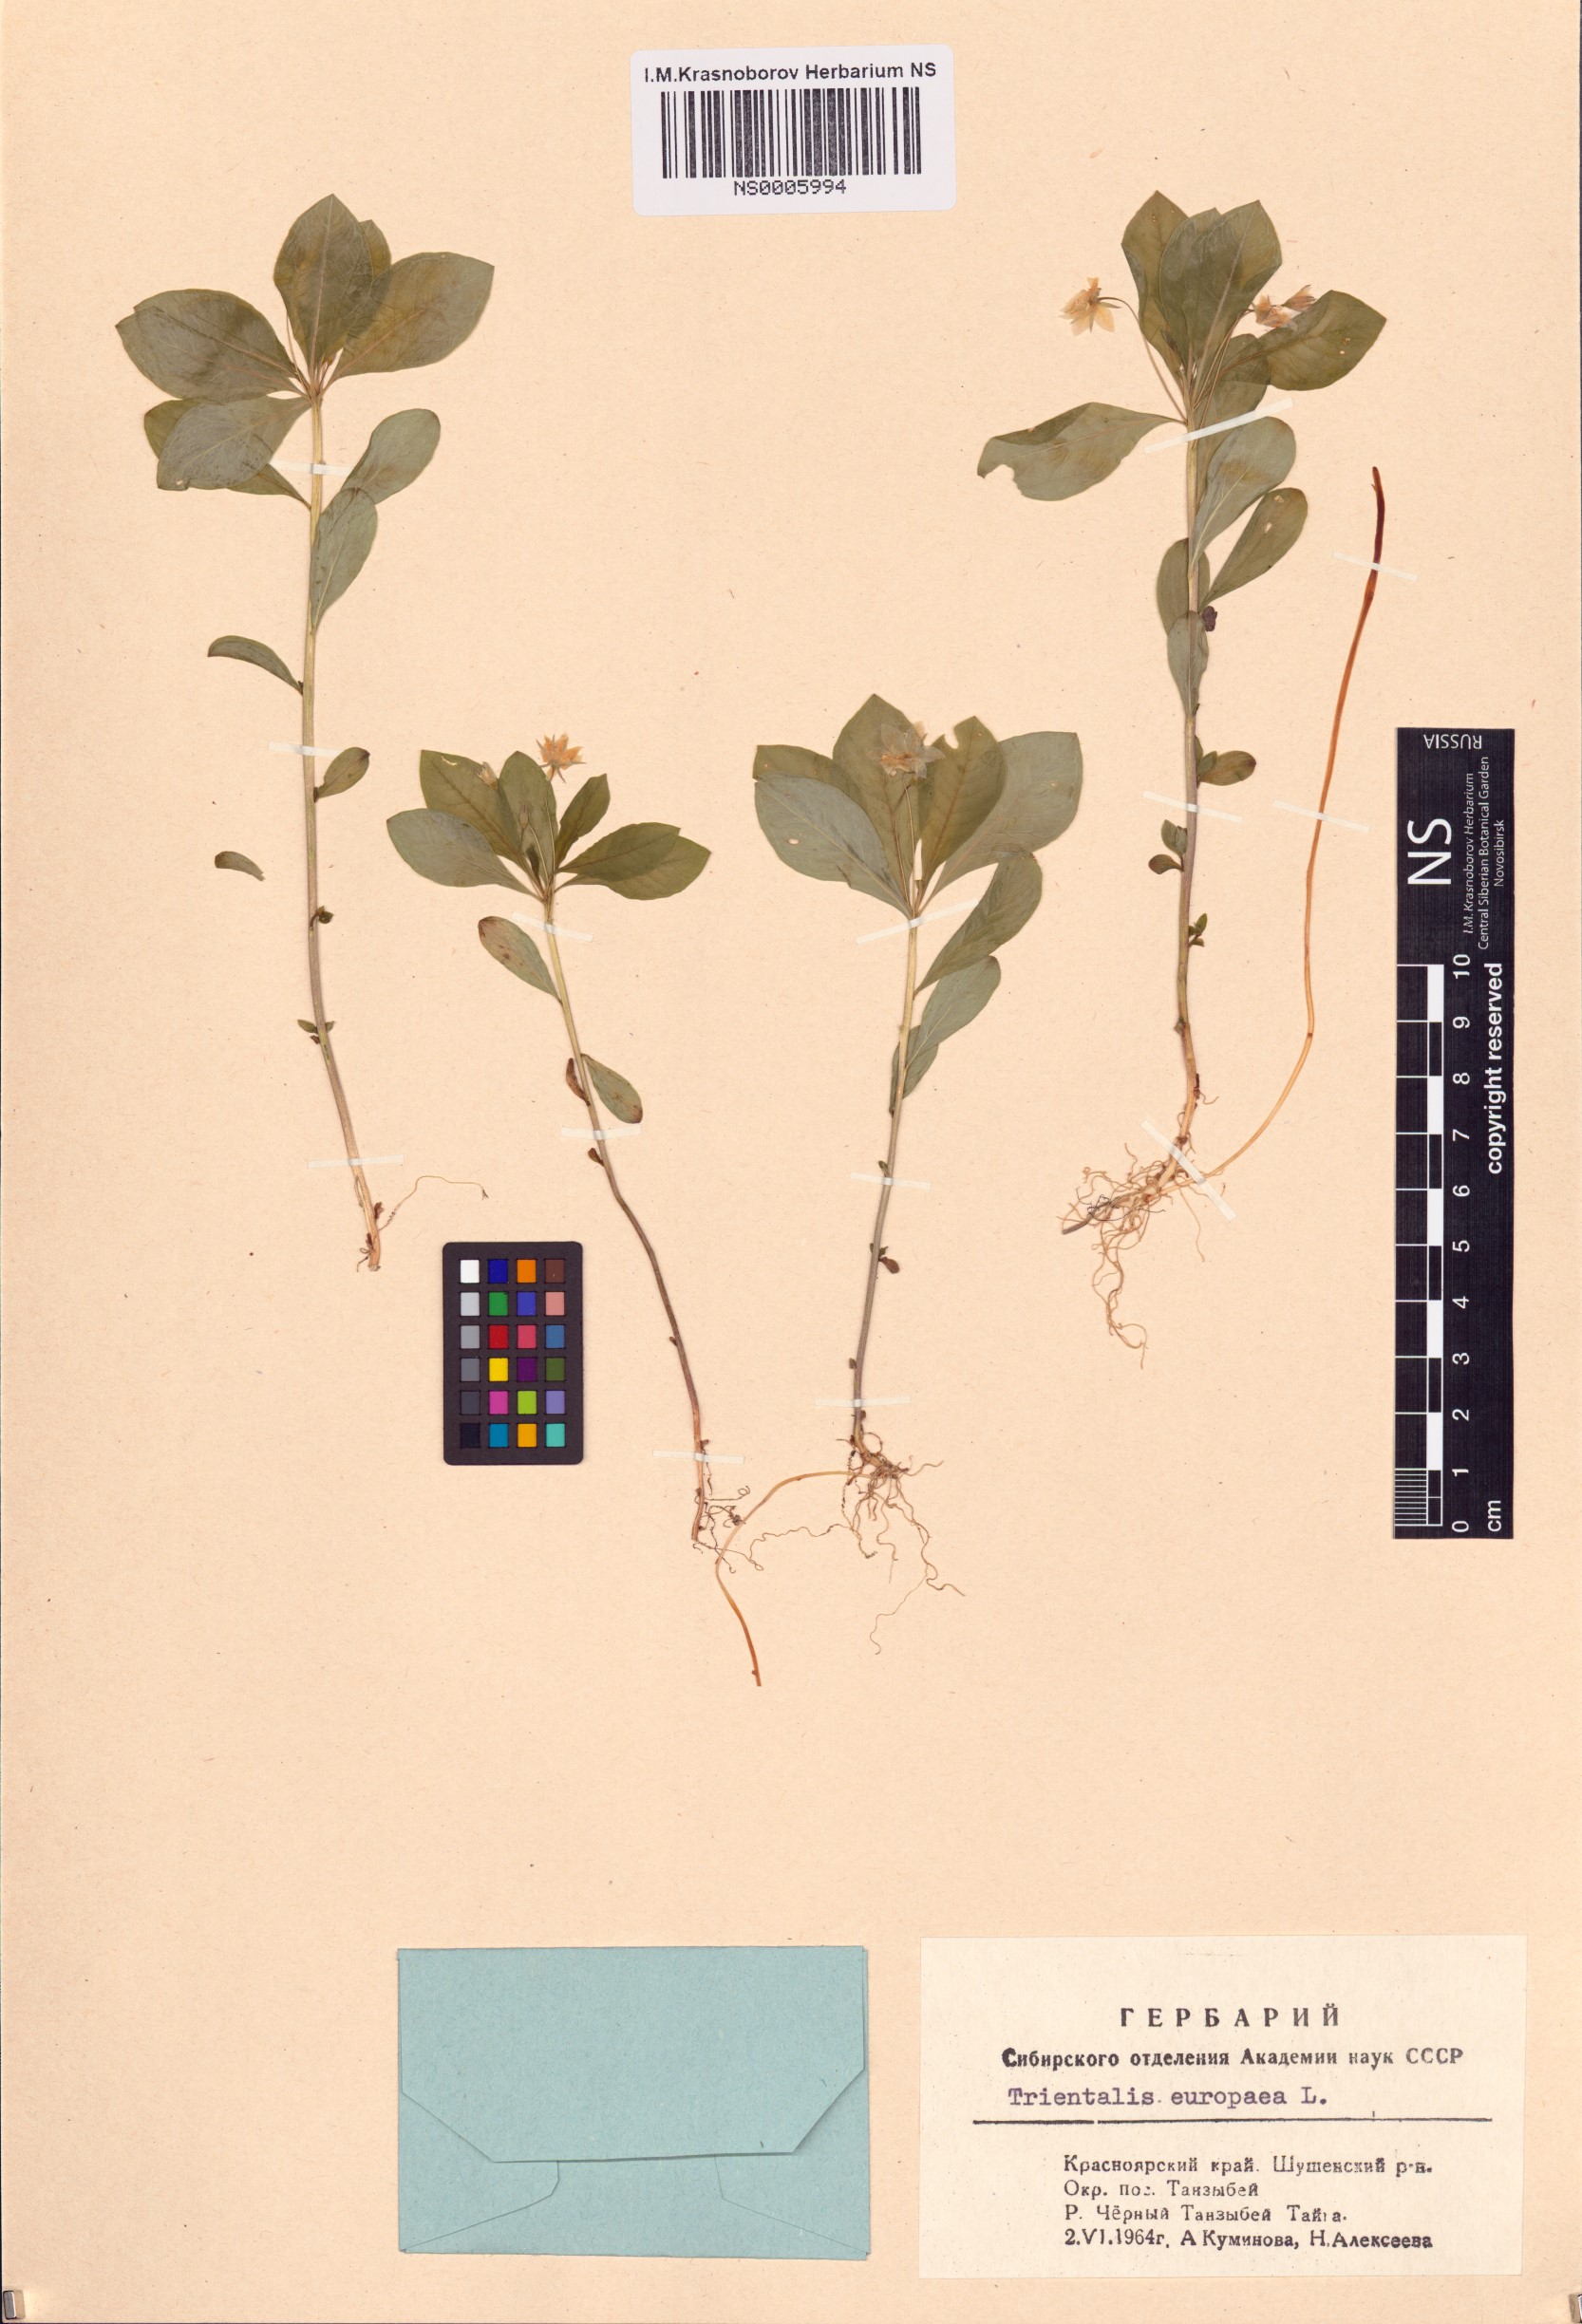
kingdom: Plantae
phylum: Tracheophyta
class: Magnoliopsida
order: Ericales
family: Primulaceae
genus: Lysimachia
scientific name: Lysimachia europaea
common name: Arctic starflower
